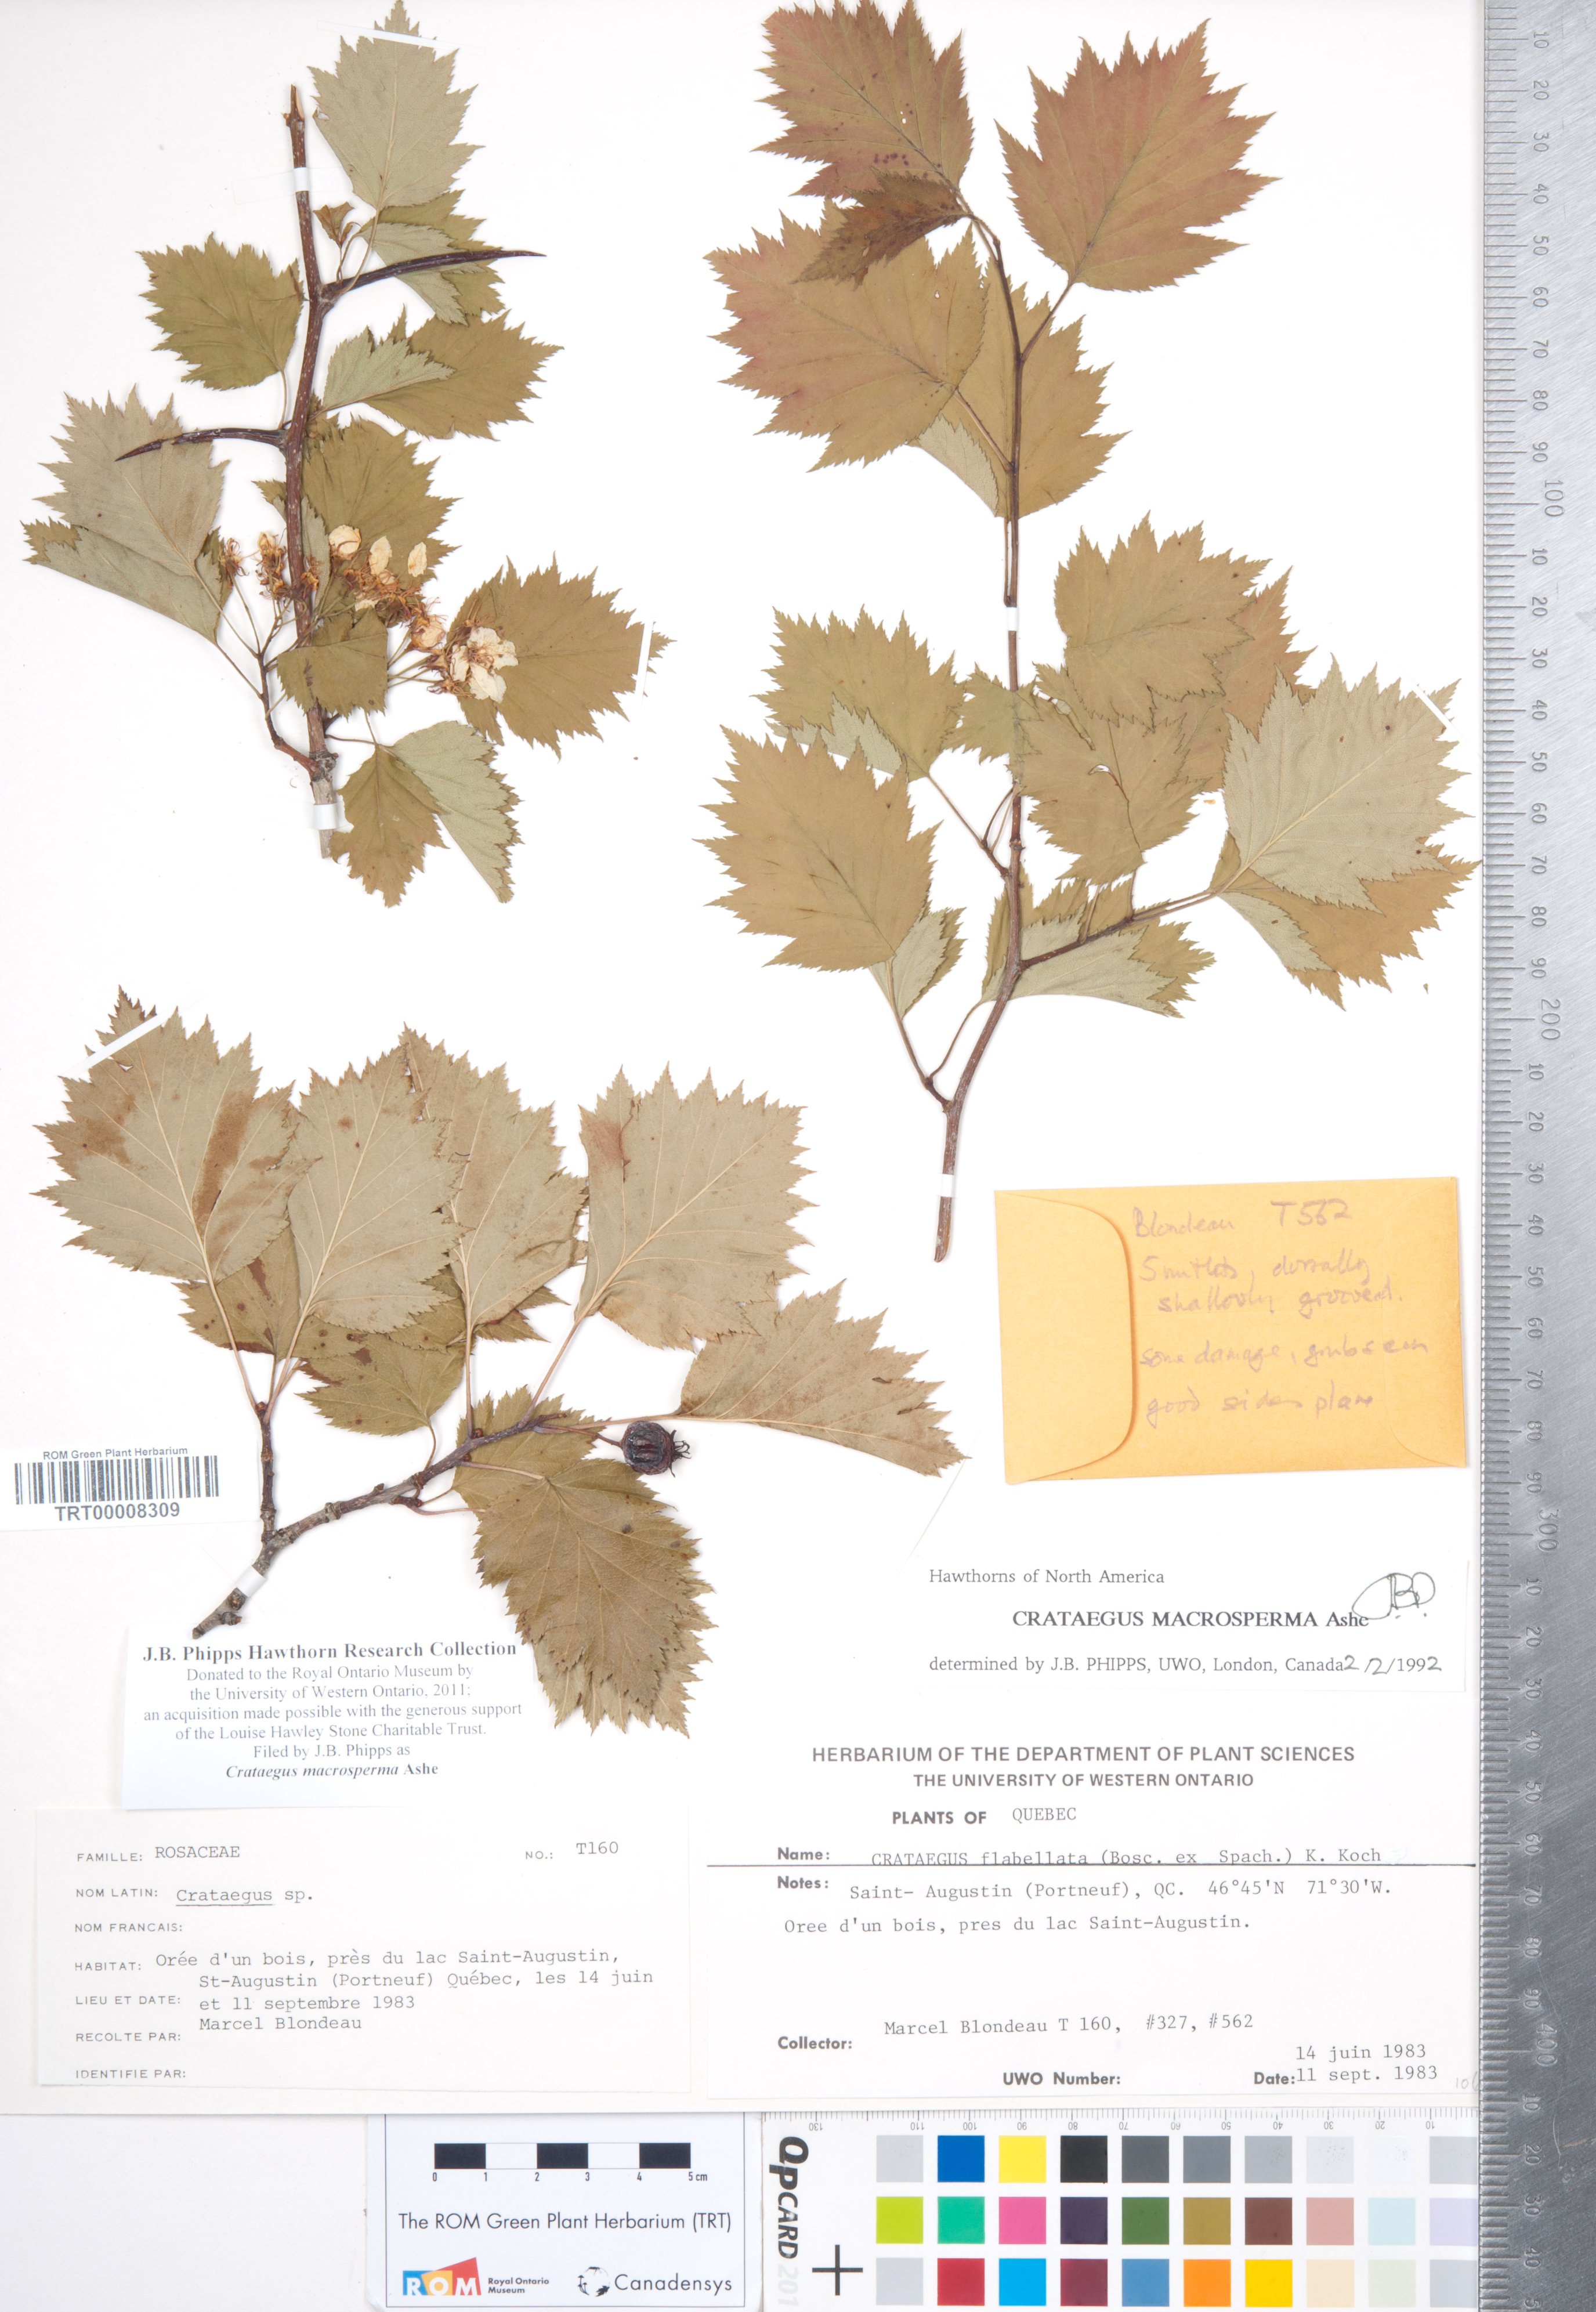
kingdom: Plantae
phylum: Tracheophyta
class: Magnoliopsida
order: Rosales
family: Rosaceae
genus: Crataegus
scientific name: Crataegus macrosperma
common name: Variable hawthorn
